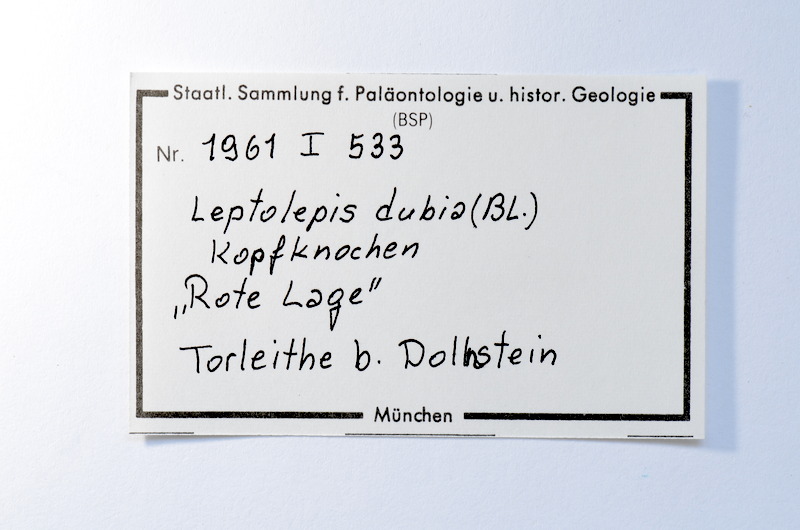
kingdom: Animalia
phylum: Chordata
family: Ascalaboidae
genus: Tharsis
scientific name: Tharsis dubius
